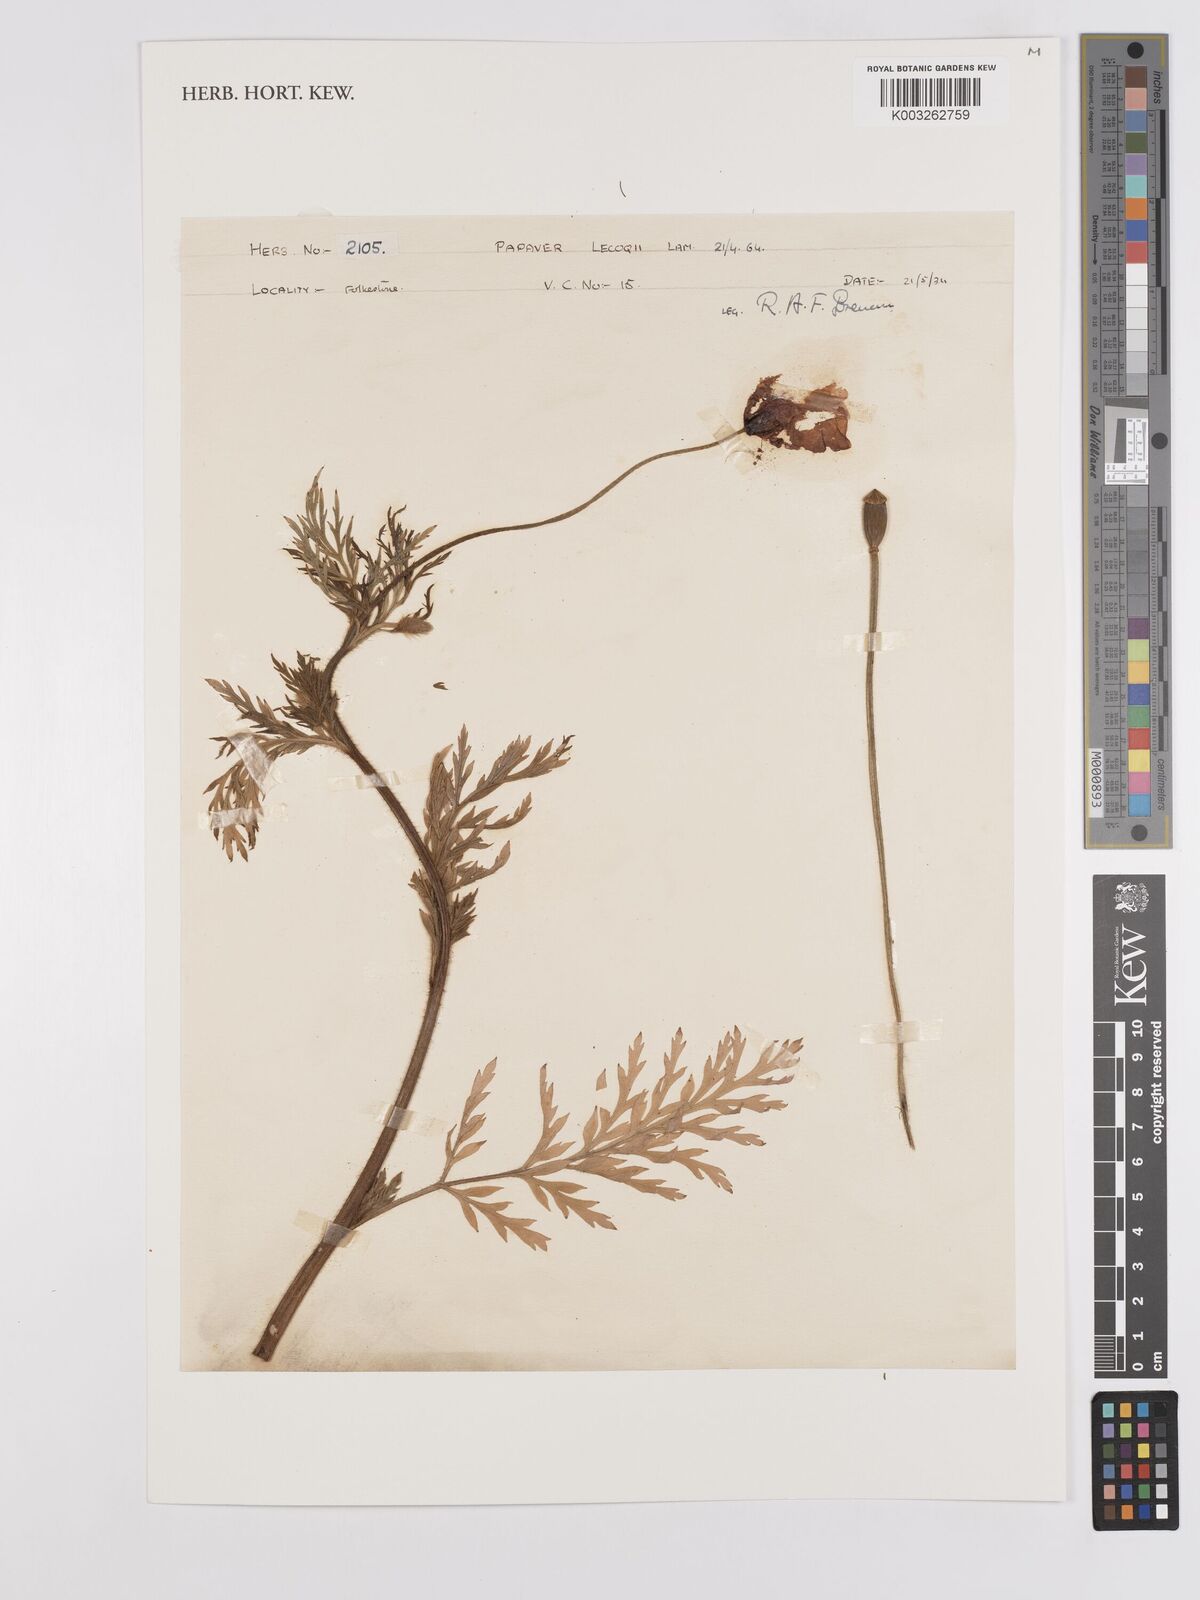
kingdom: Plantae
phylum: Tracheophyta
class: Magnoliopsida
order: Ranunculales
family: Papaveraceae
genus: Papaver
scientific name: Papaver lecoqii
